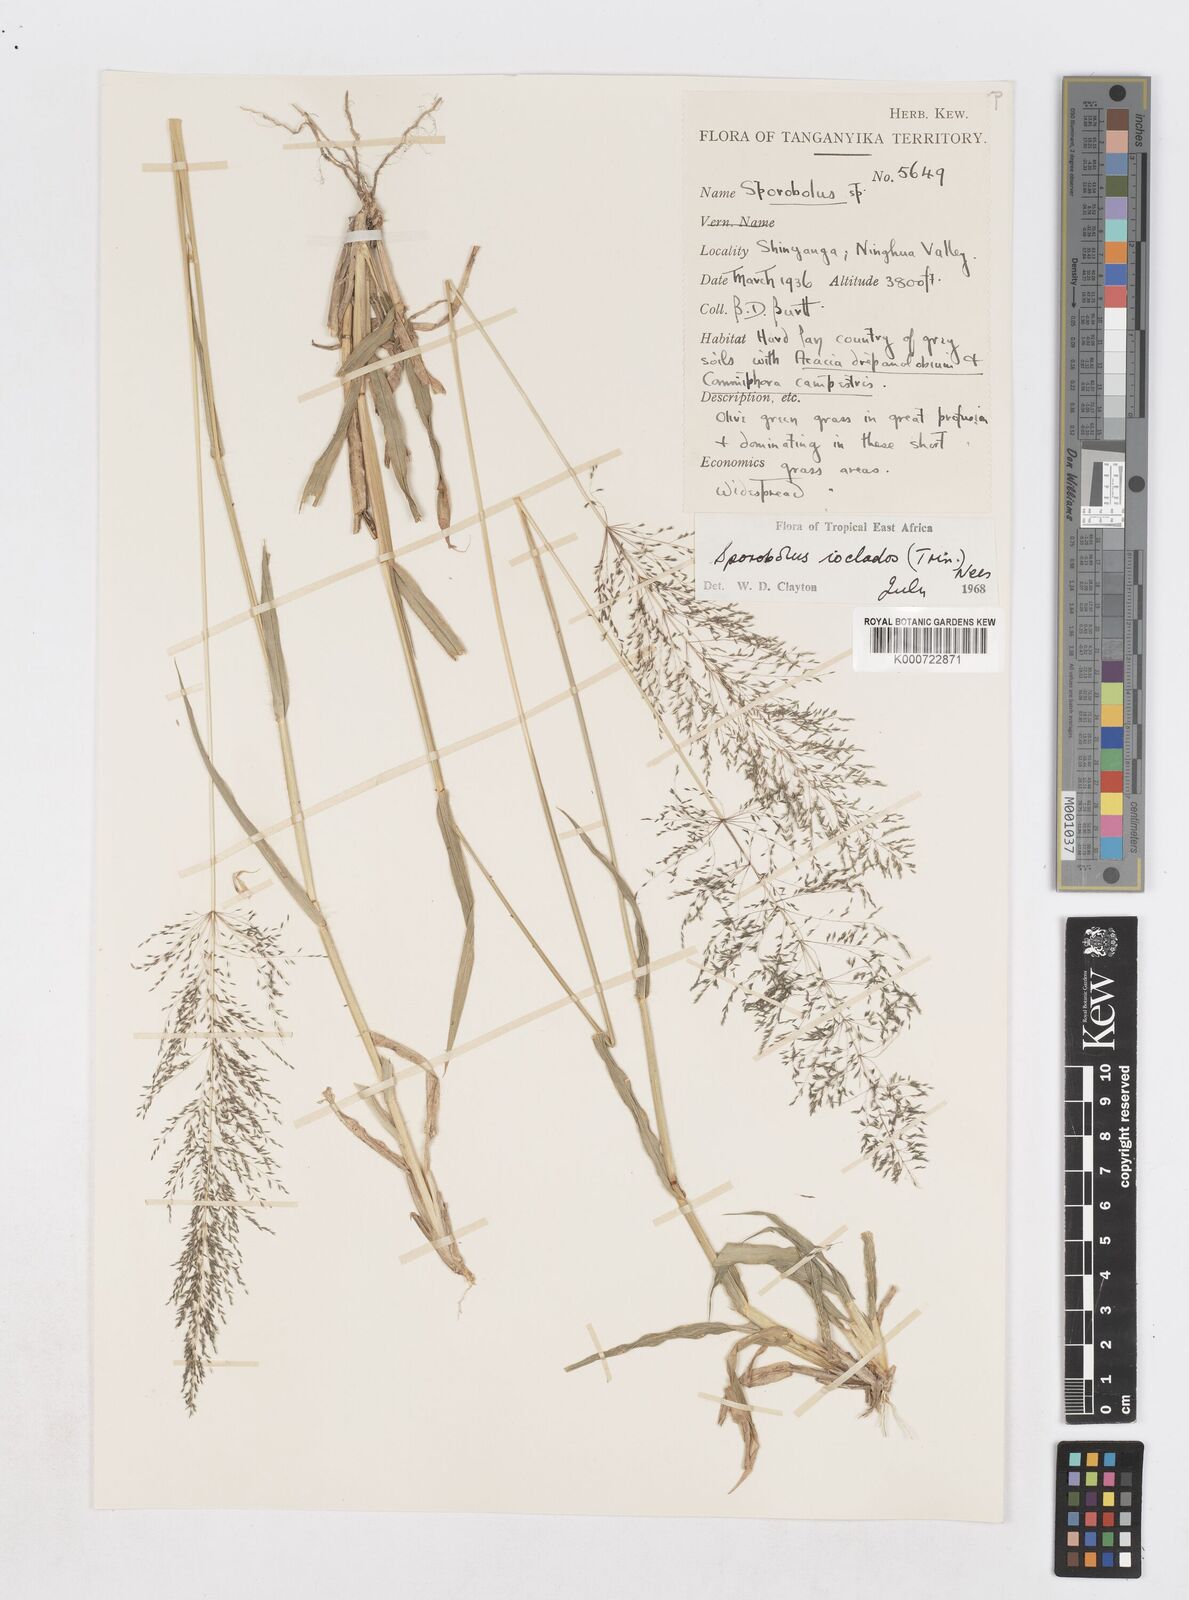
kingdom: Plantae
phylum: Tracheophyta
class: Liliopsida
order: Poales
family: Poaceae
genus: Sporobolus
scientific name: Sporobolus ioclados
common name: Pan dropseed
